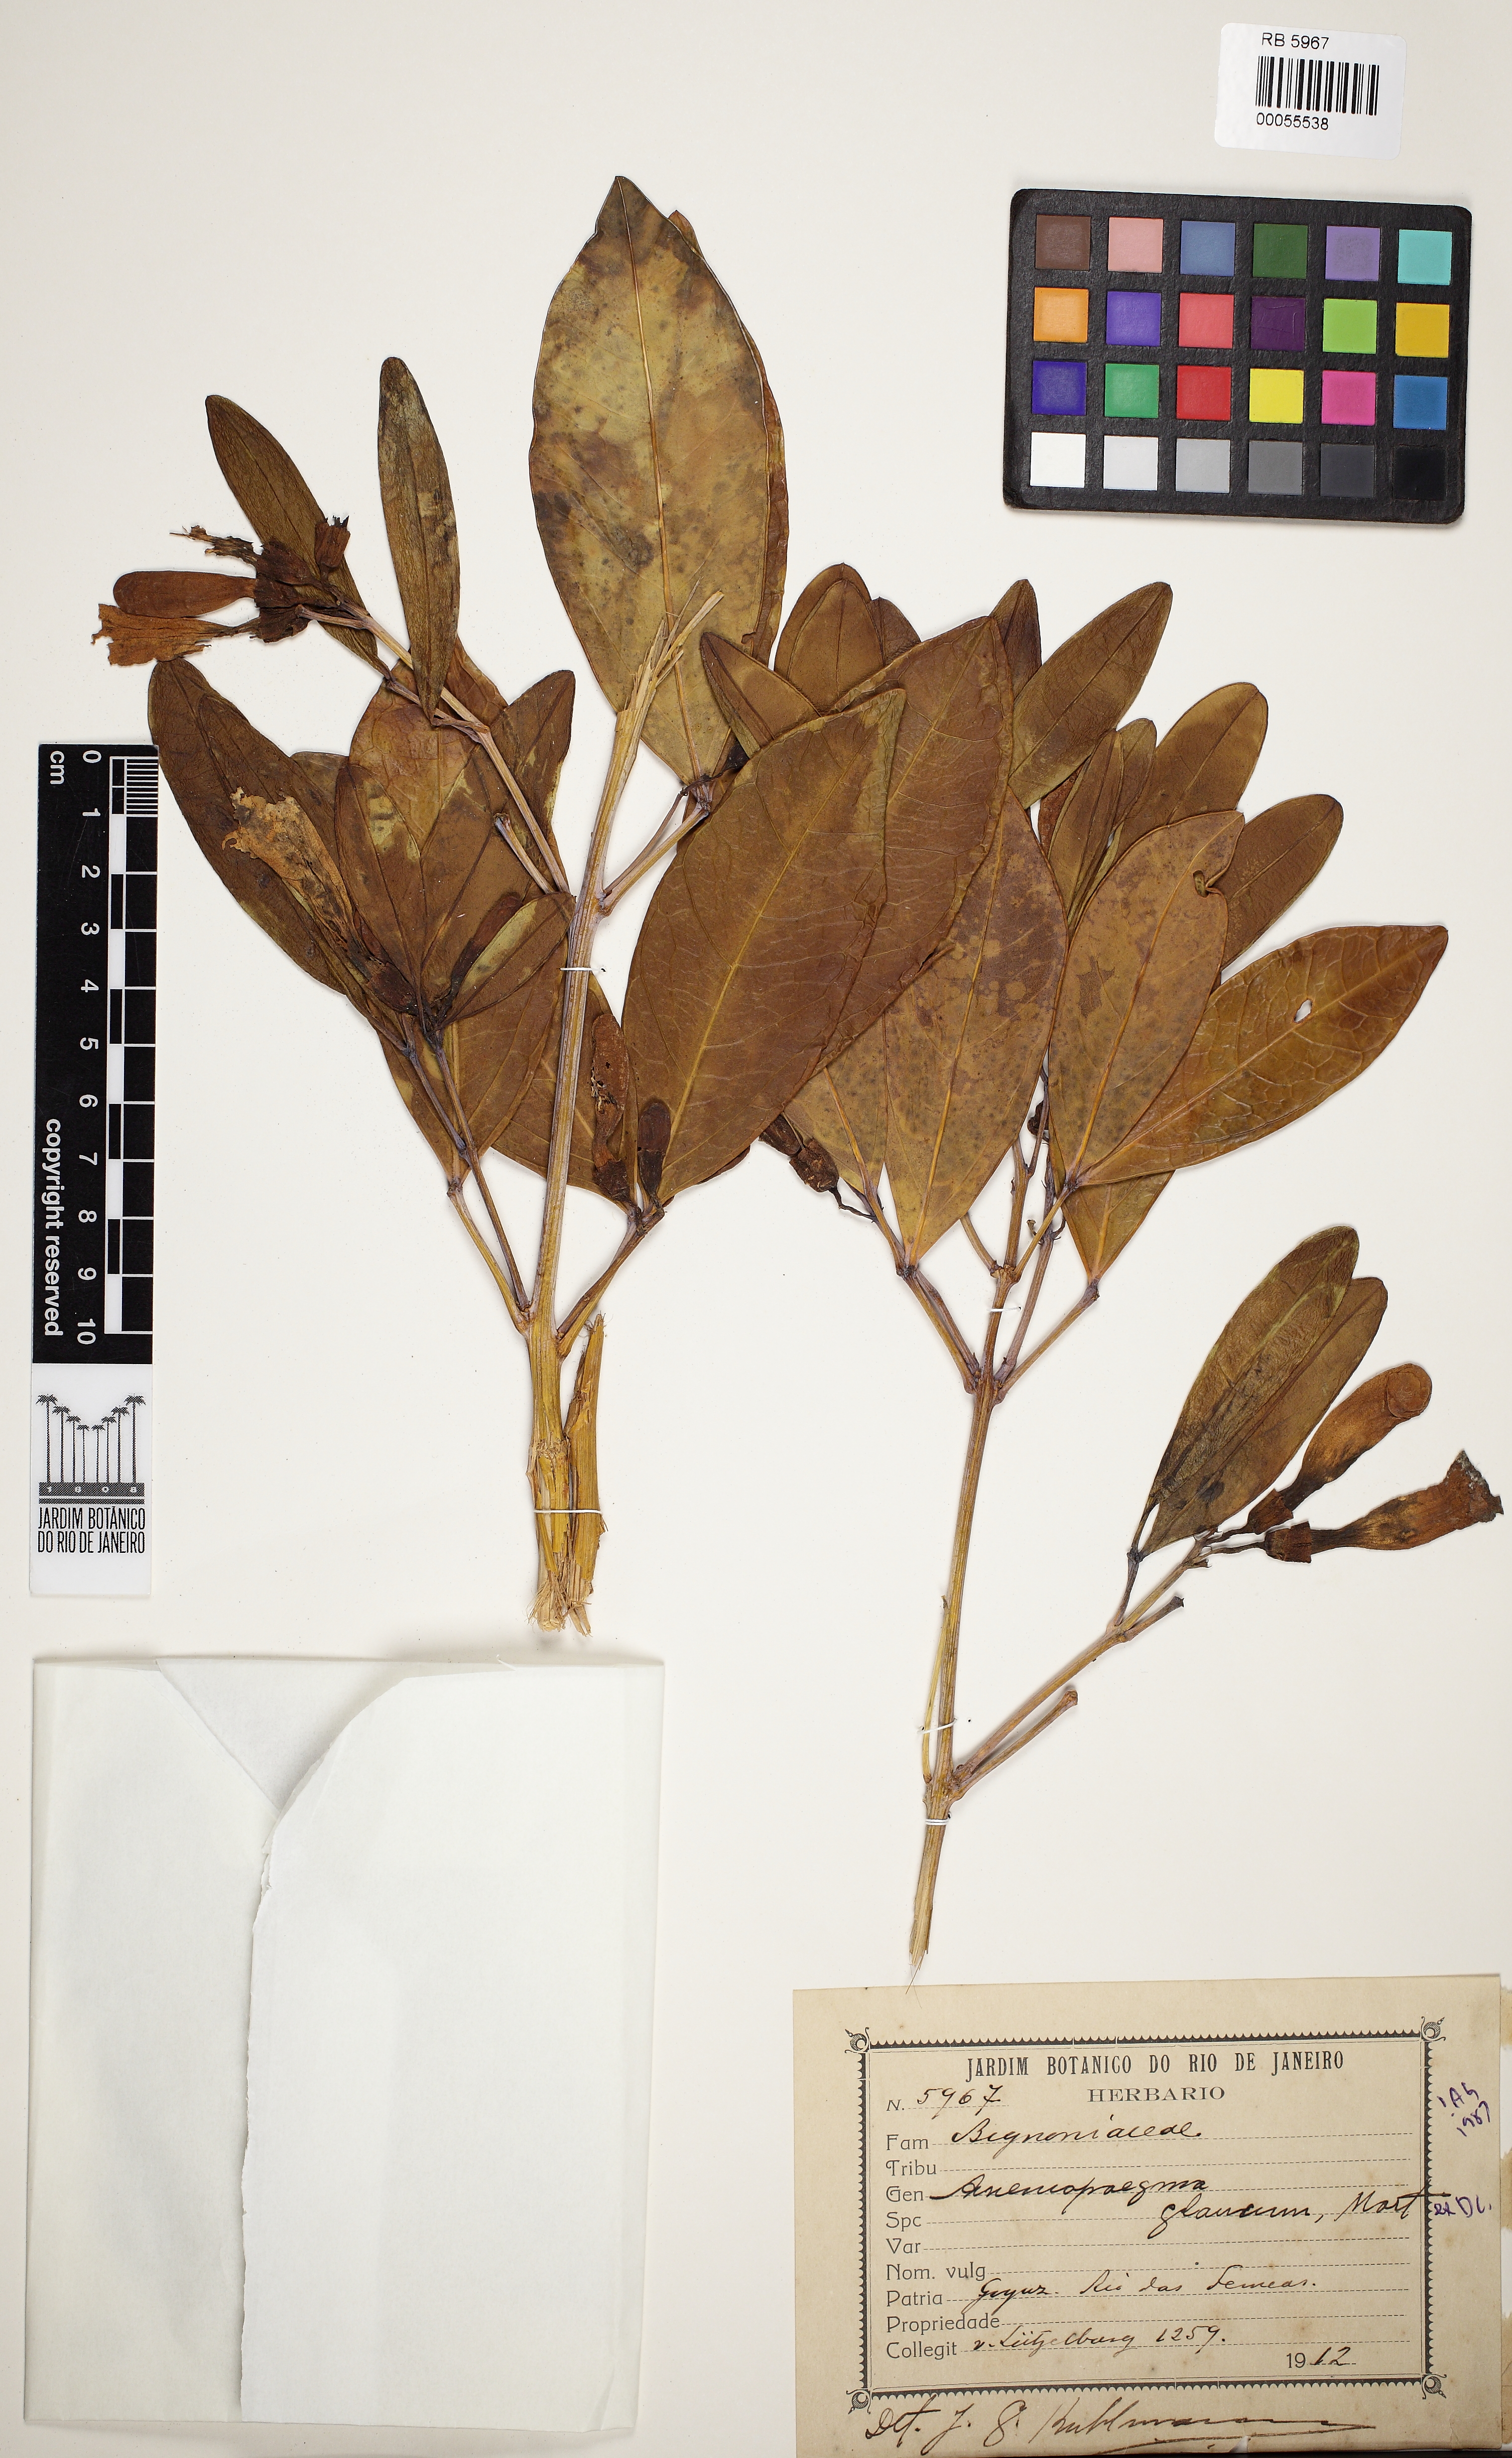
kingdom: Plantae
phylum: Tracheophyta
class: Magnoliopsida
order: Lamiales
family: Bignoniaceae
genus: Anemopaegma
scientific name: Anemopaegma glaucum
